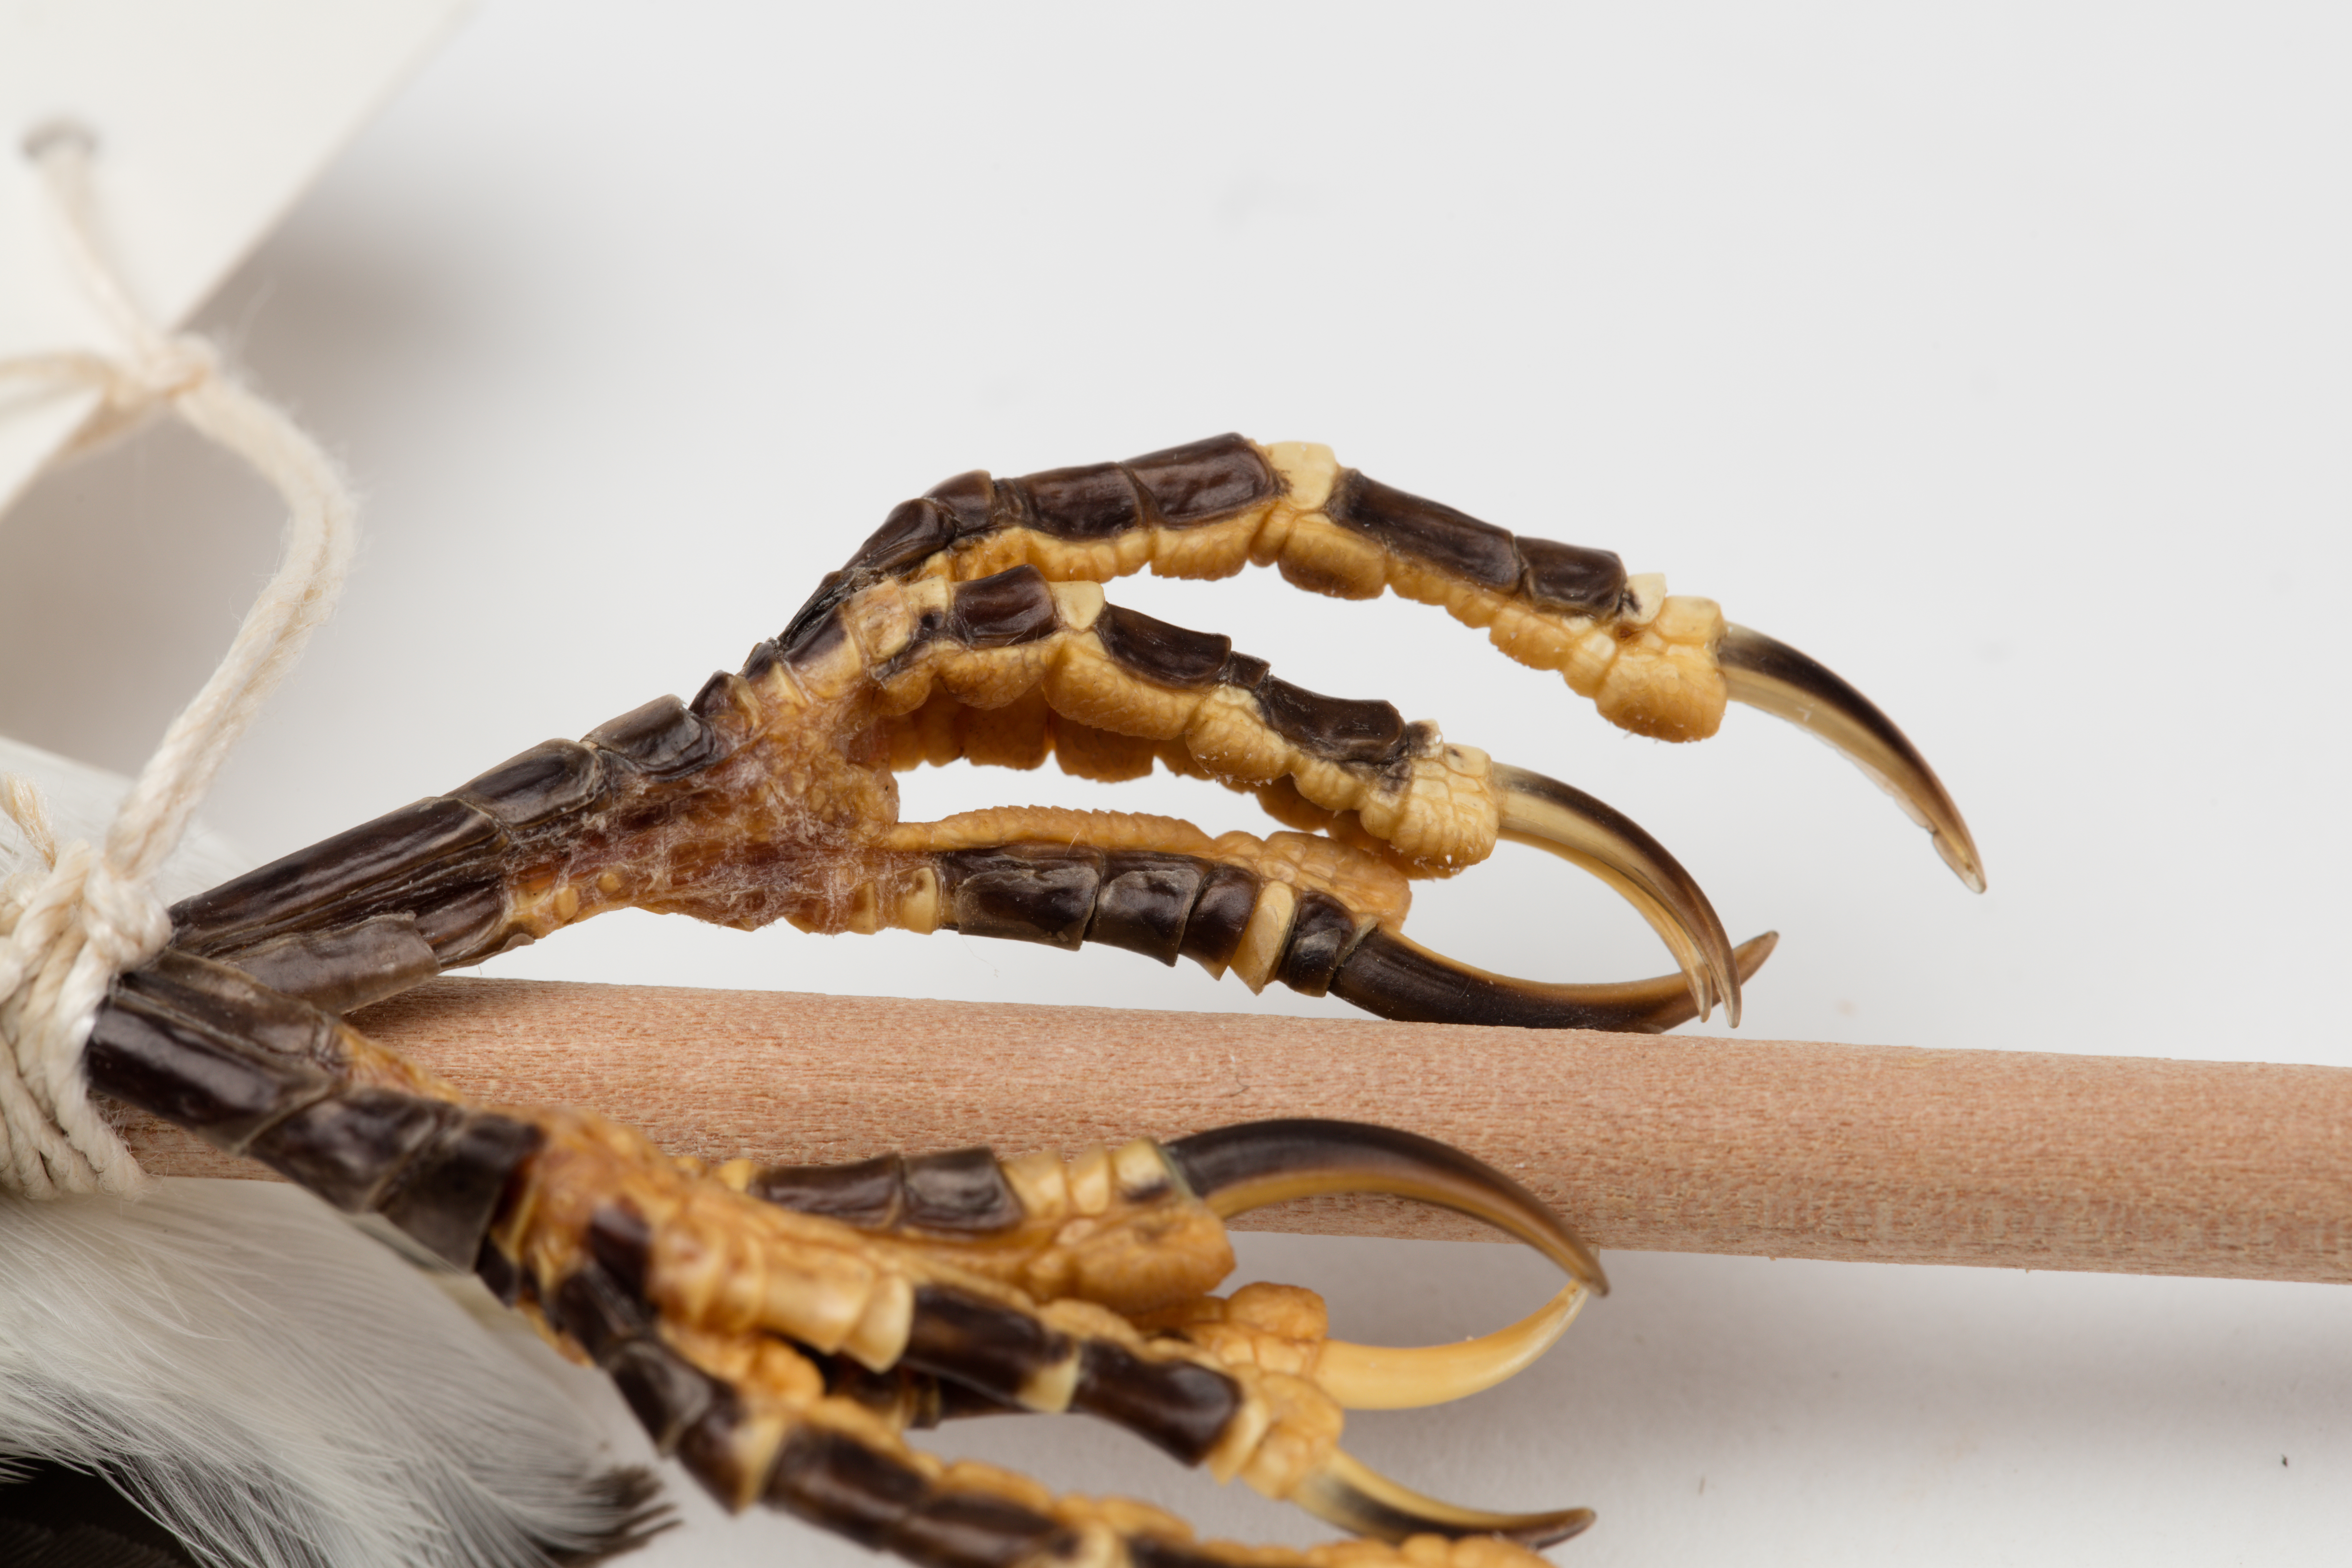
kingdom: Animalia
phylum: Chordata
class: Aves
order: Passeriformes
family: Turdidae
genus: Turdus
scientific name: Turdus merula
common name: Common blackbird
